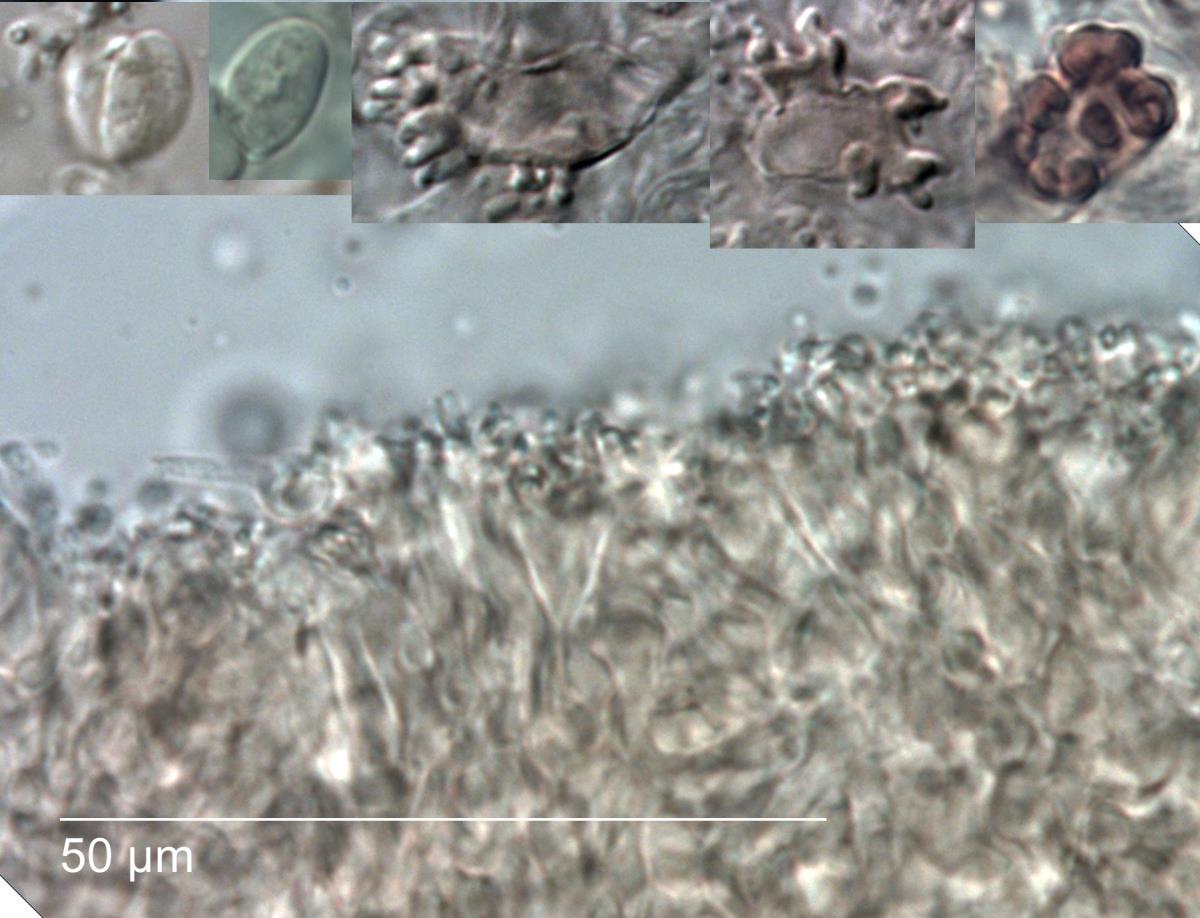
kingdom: Fungi
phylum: Basidiomycota
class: Agaricomycetes
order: Agaricales
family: Marasmiaceae
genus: Marasmius
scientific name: Marasmius tenuissimus
